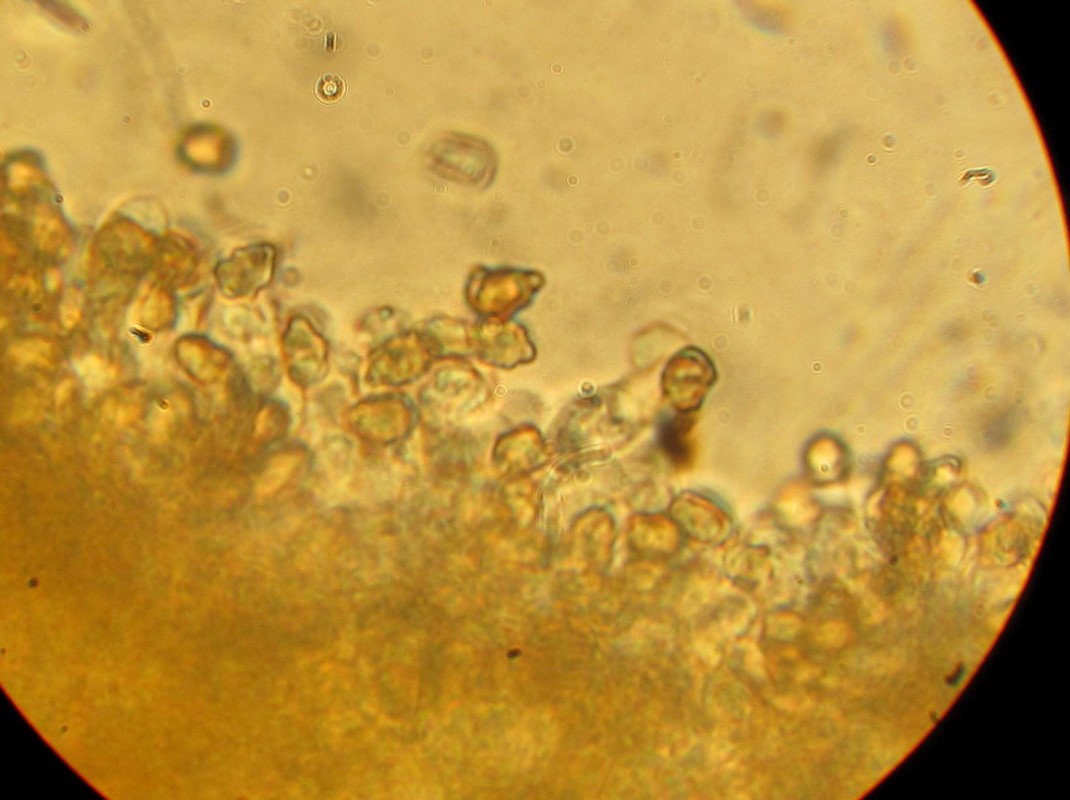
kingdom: Fungi
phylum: Basidiomycota
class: Agaricomycetes
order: Agaricales
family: Inocybaceae
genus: Inocybe
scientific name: Inocybe petiginosa
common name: liden trævlhat
